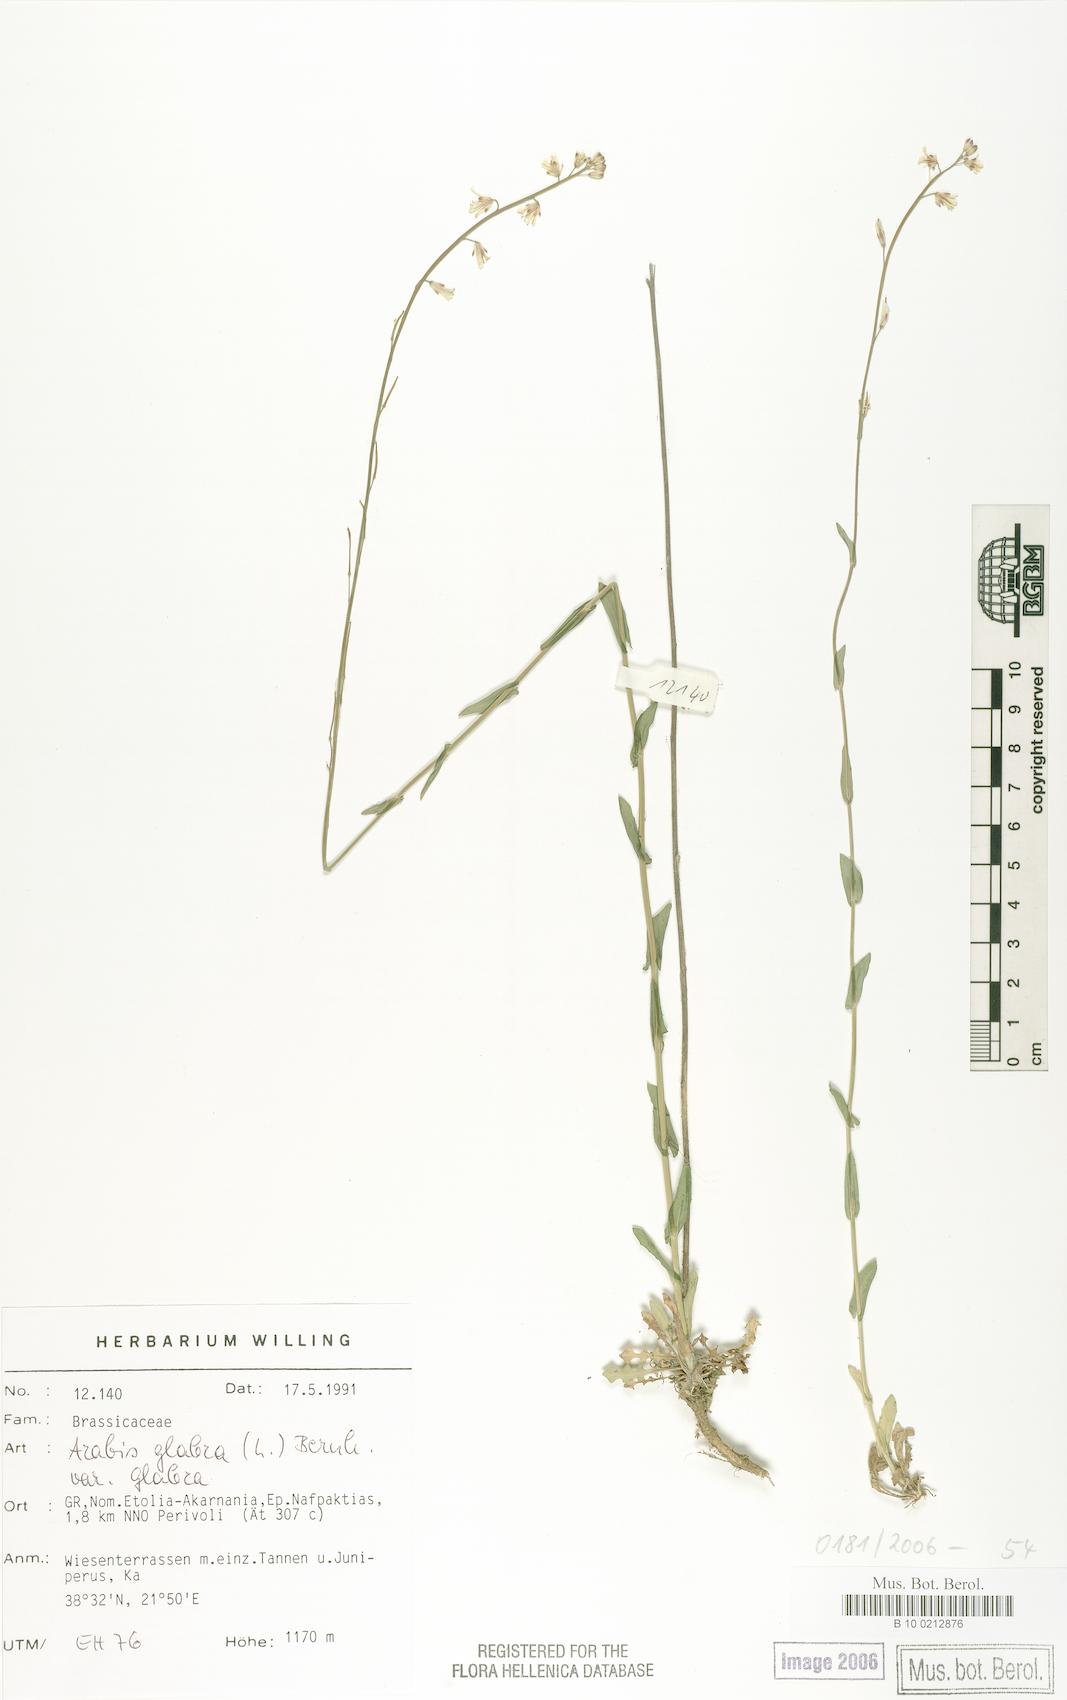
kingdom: Plantae
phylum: Tracheophyta
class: Magnoliopsida
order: Brassicales
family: Brassicaceae
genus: Turritis
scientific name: Turritis glabra
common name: Tower rockcress
